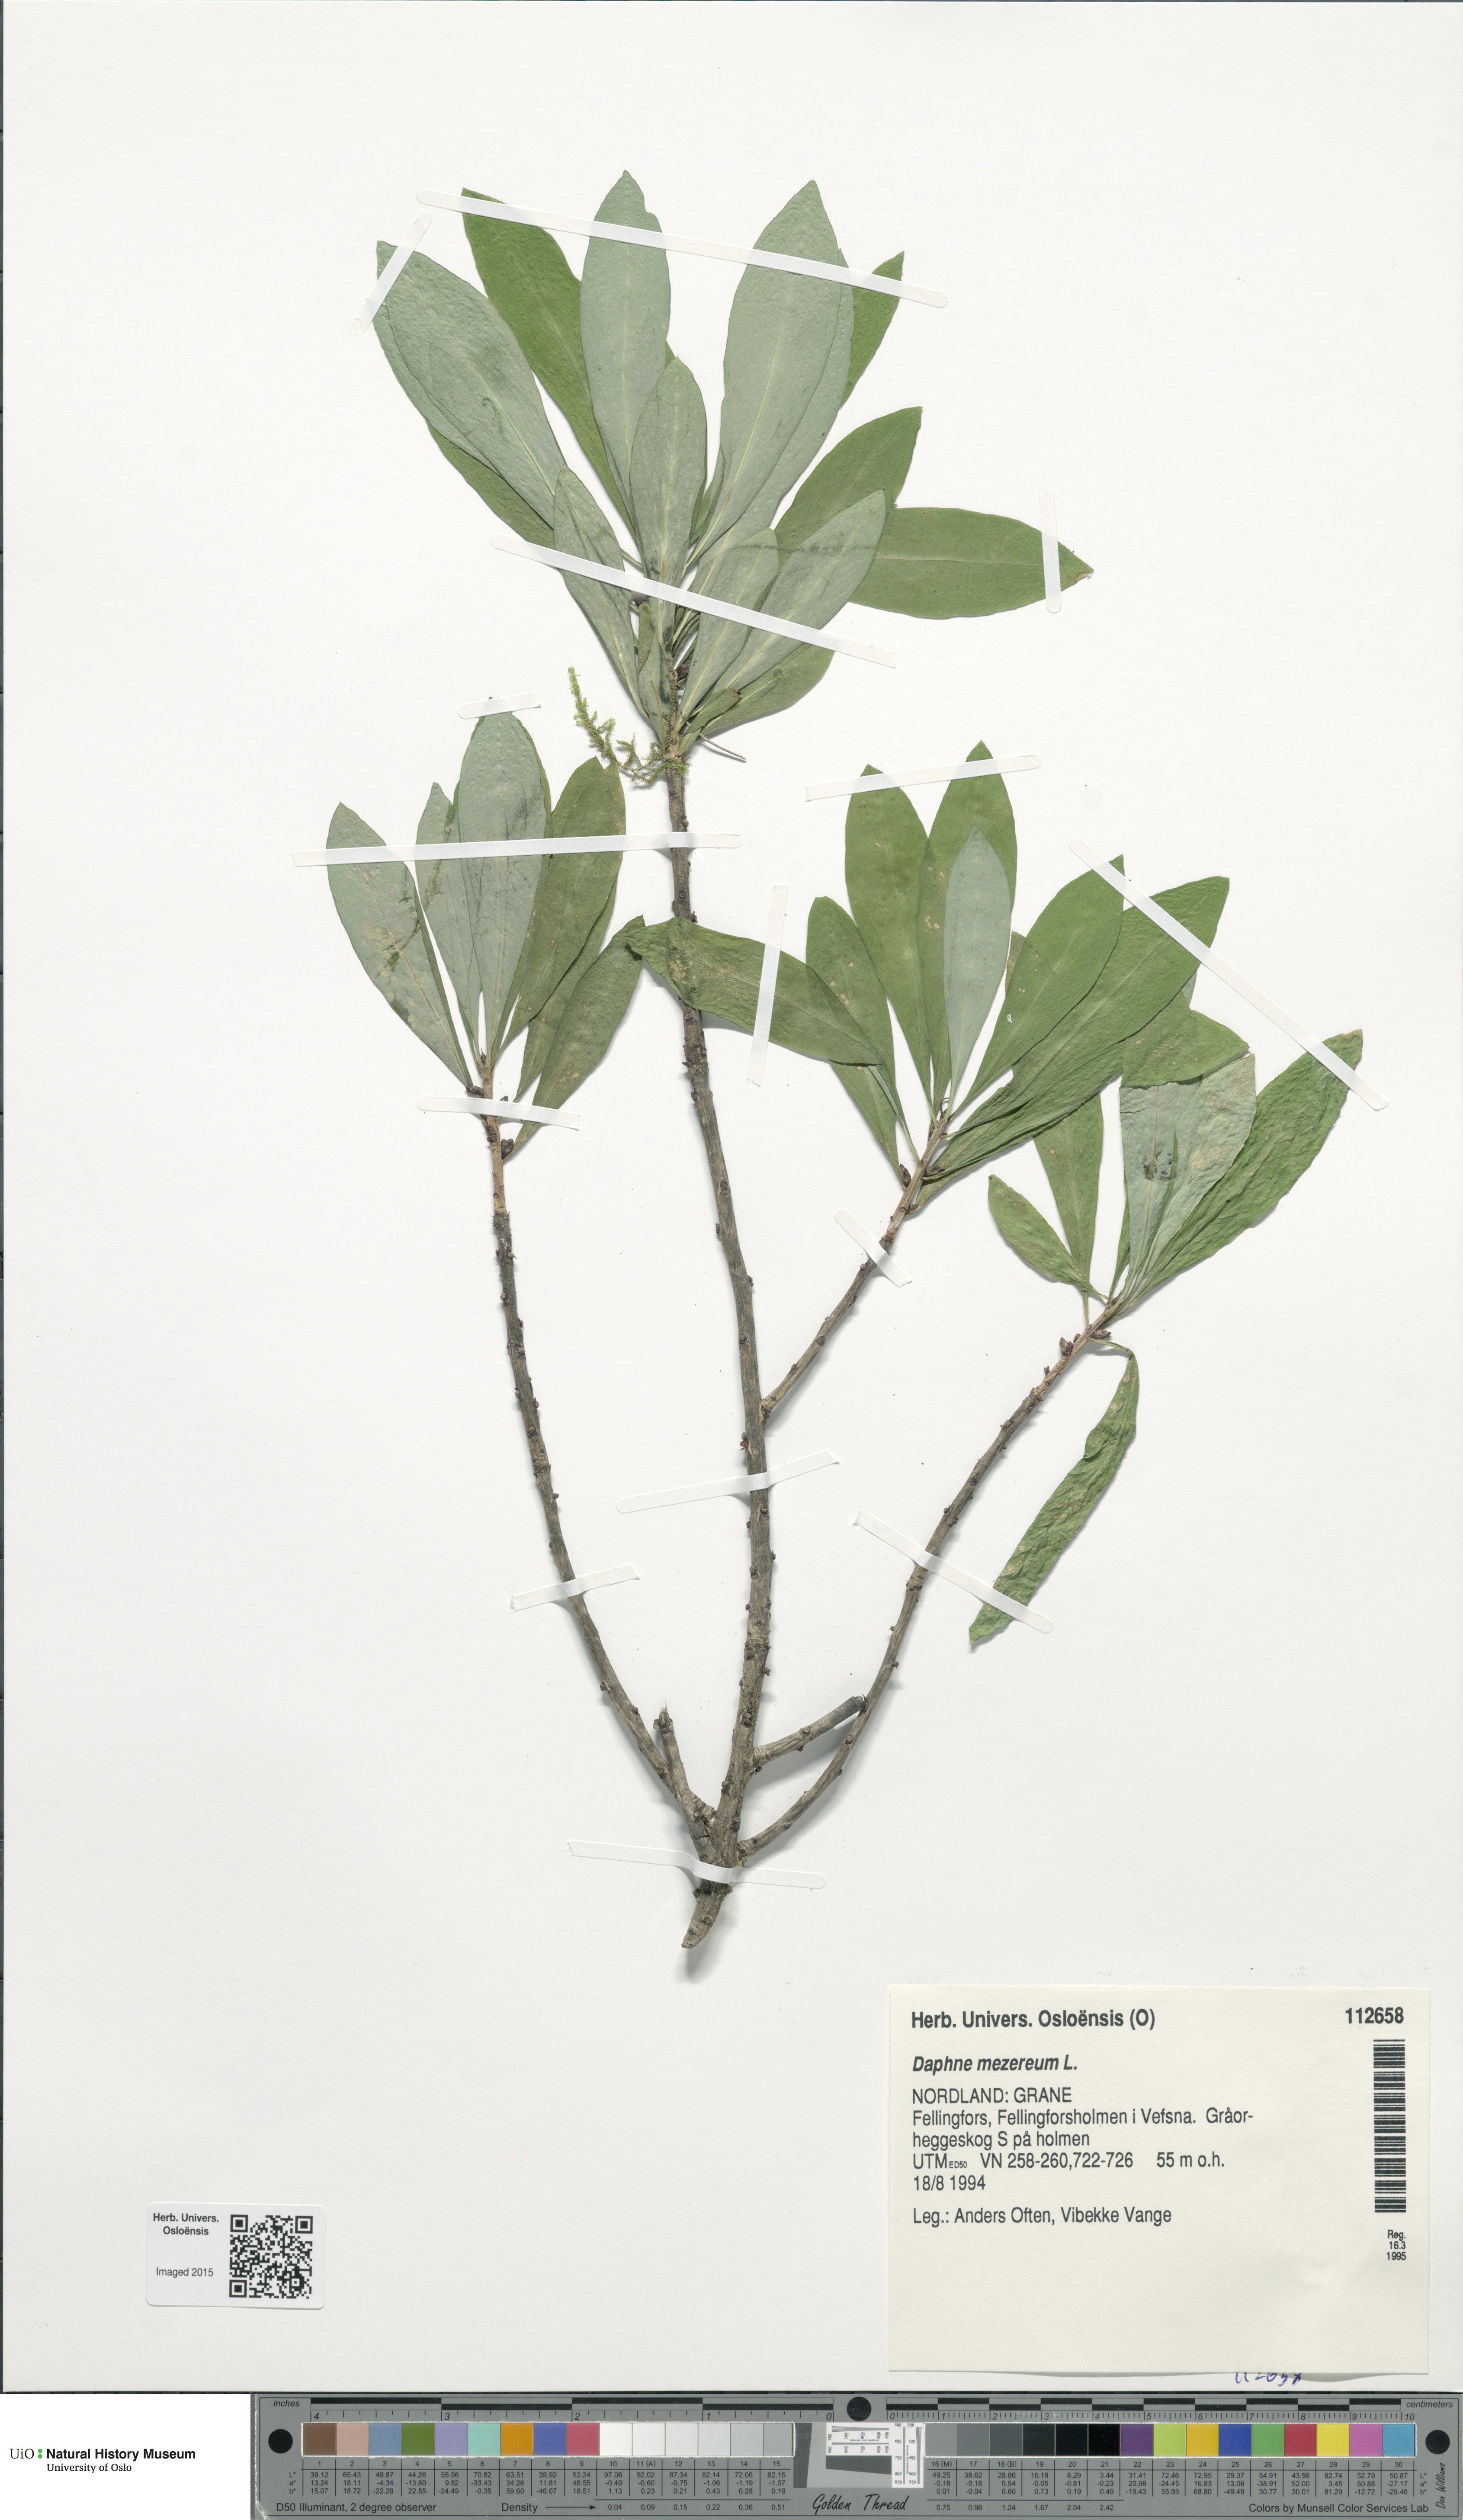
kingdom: Plantae
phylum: Tracheophyta
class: Magnoliopsida
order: Malvales
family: Thymelaeaceae
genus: Daphne
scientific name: Daphne mezereum
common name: Mezereon
